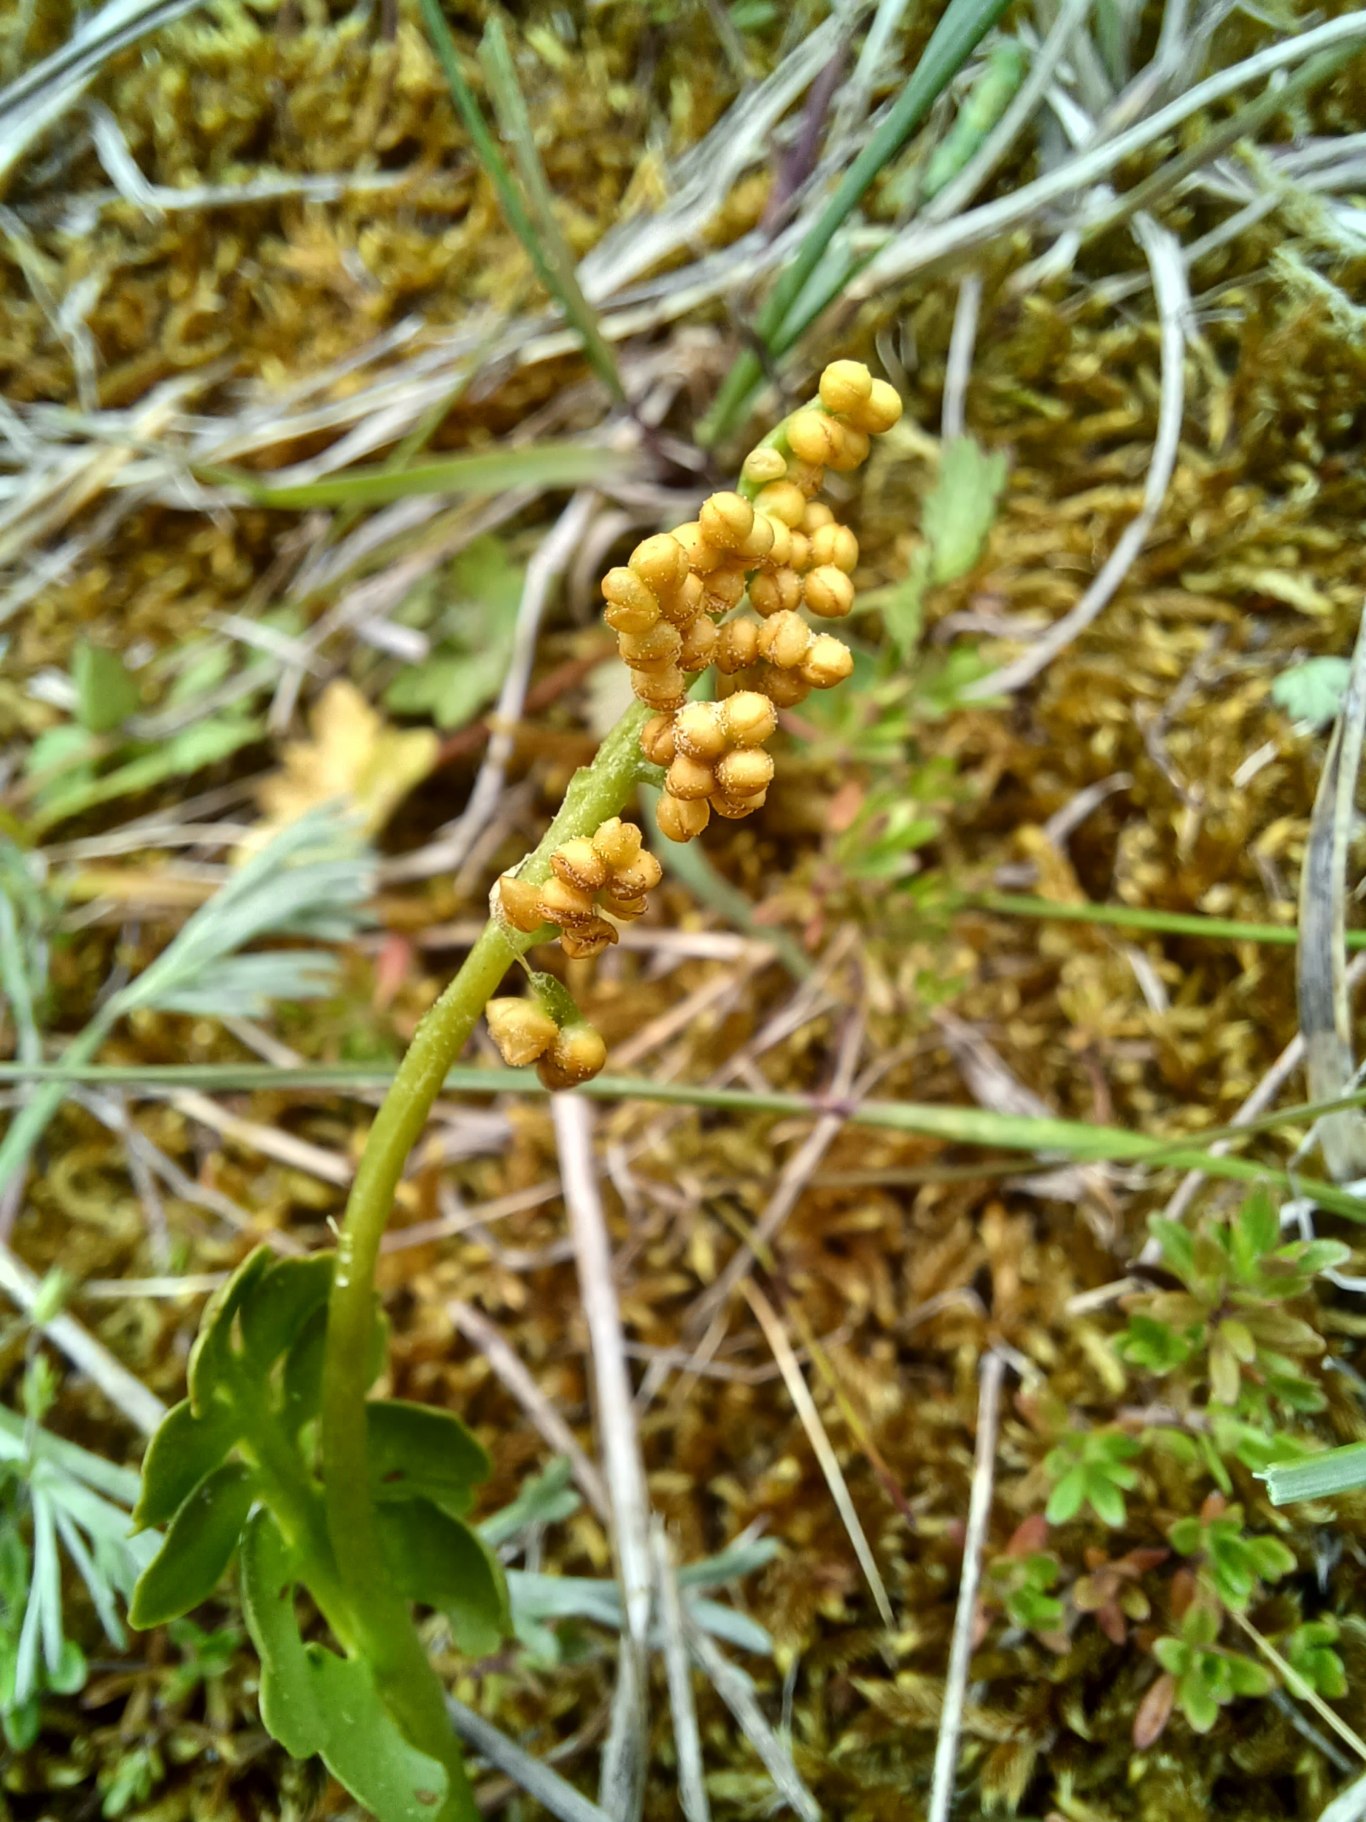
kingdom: Plantae
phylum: Tracheophyta
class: Polypodiopsida
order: Ophioglossales
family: Ophioglossaceae
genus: Botrychium
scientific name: Botrychium lunaria
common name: Almindelig månerude
